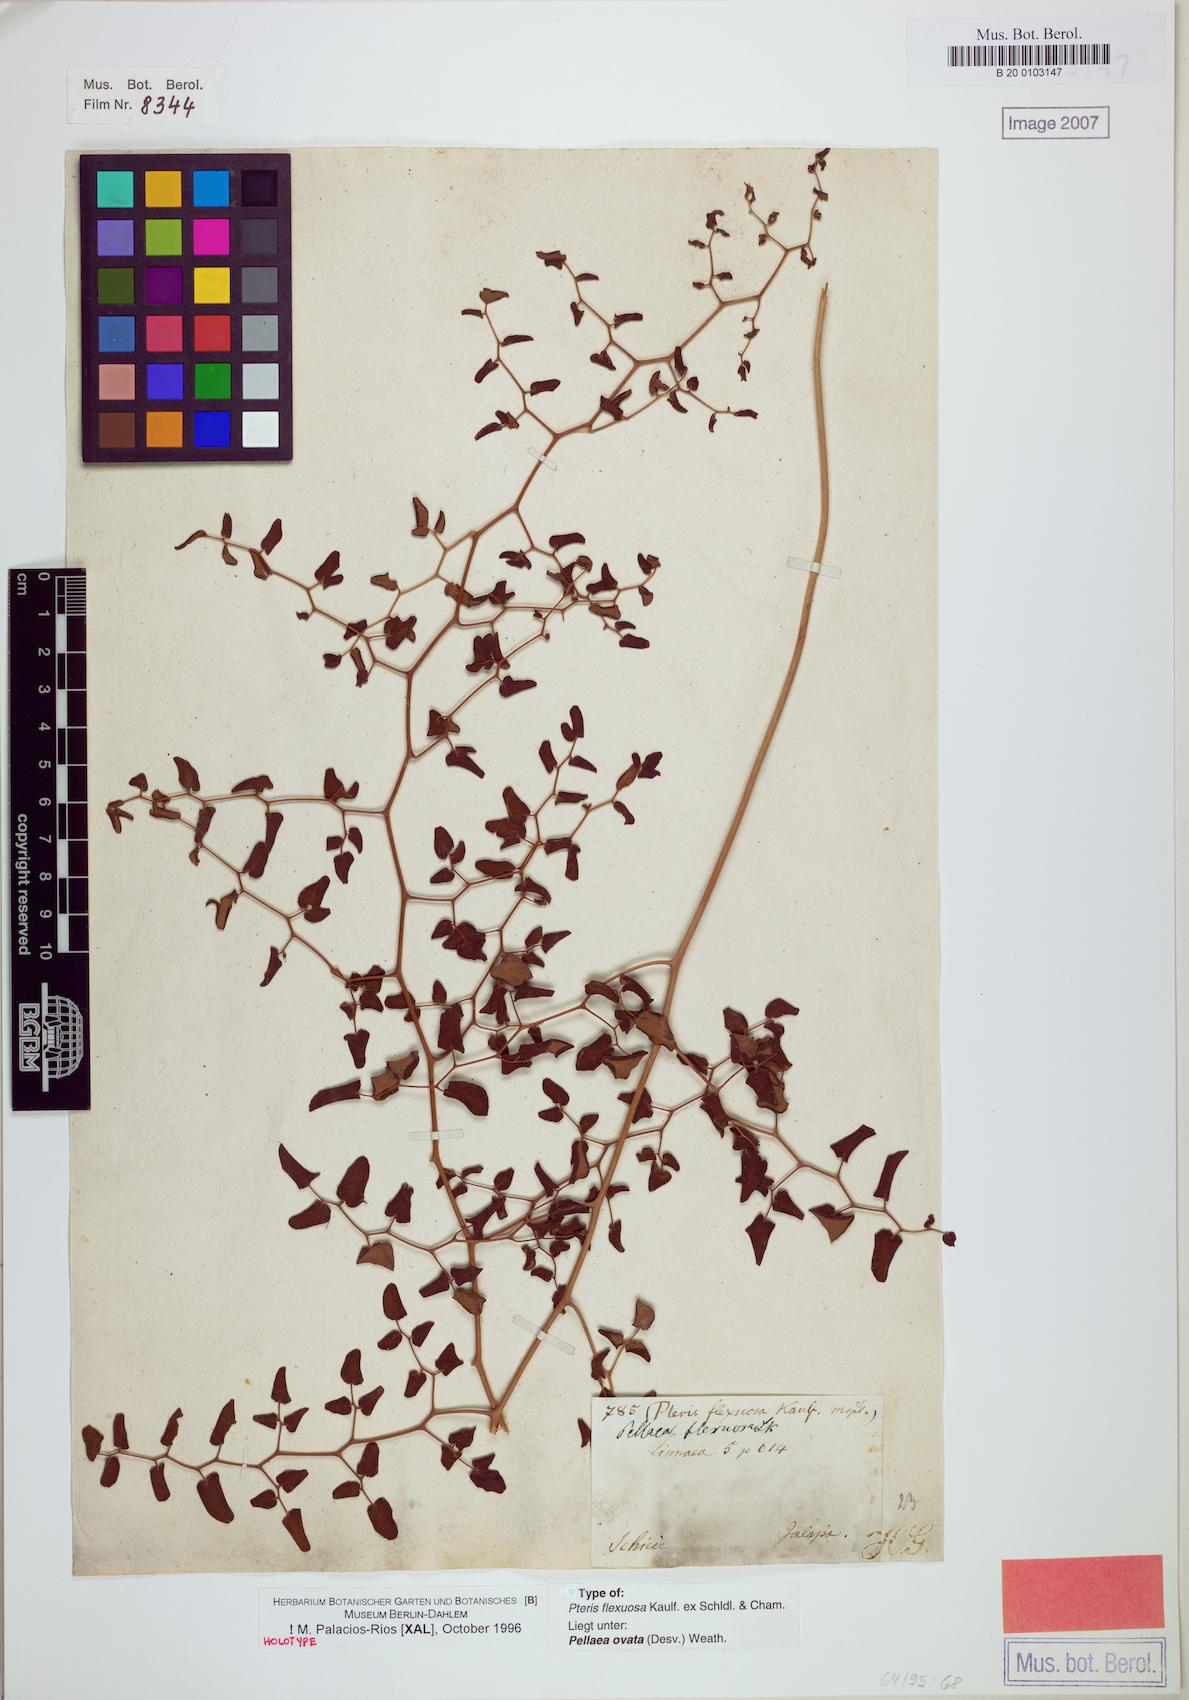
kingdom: Plantae
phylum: Tracheophyta
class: Polypodiopsida
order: Polypodiales
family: Pteridaceae
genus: Pellaea
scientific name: Pellaea ovata
